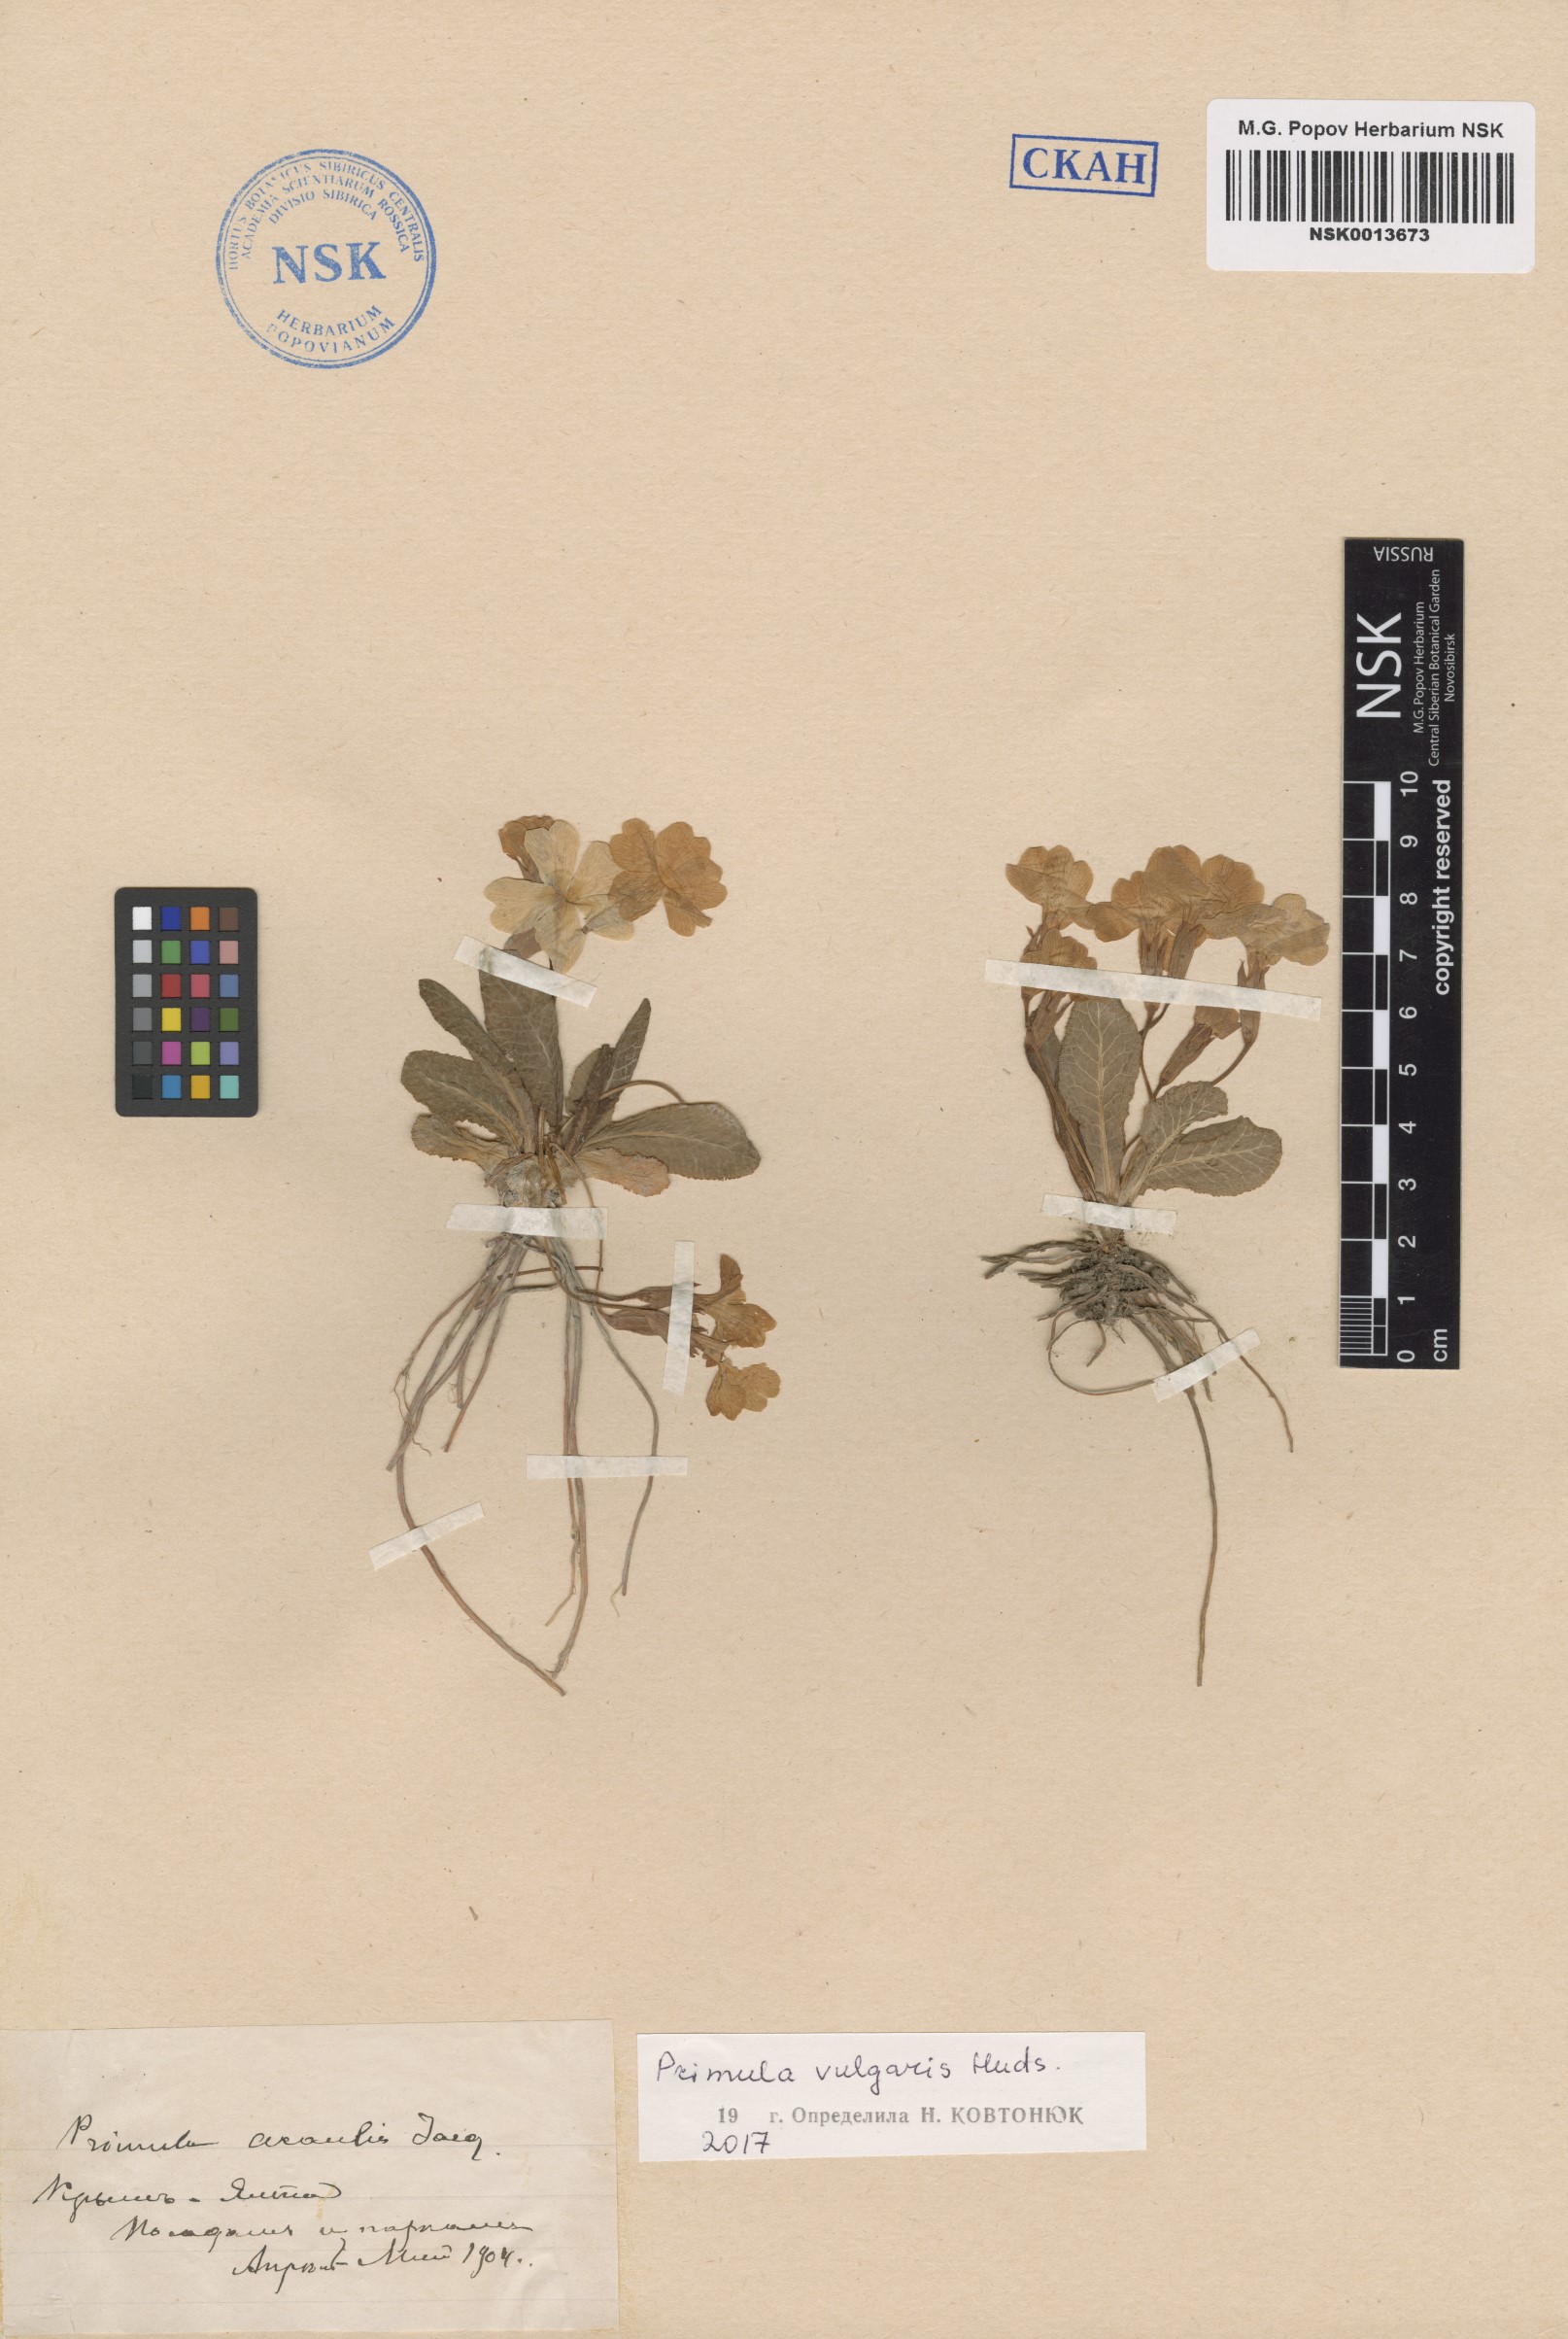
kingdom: Plantae
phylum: Tracheophyta
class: Magnoliopsida
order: Ericales
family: Primulaceae
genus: Primula
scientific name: Primula vulgaris
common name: Primrose
